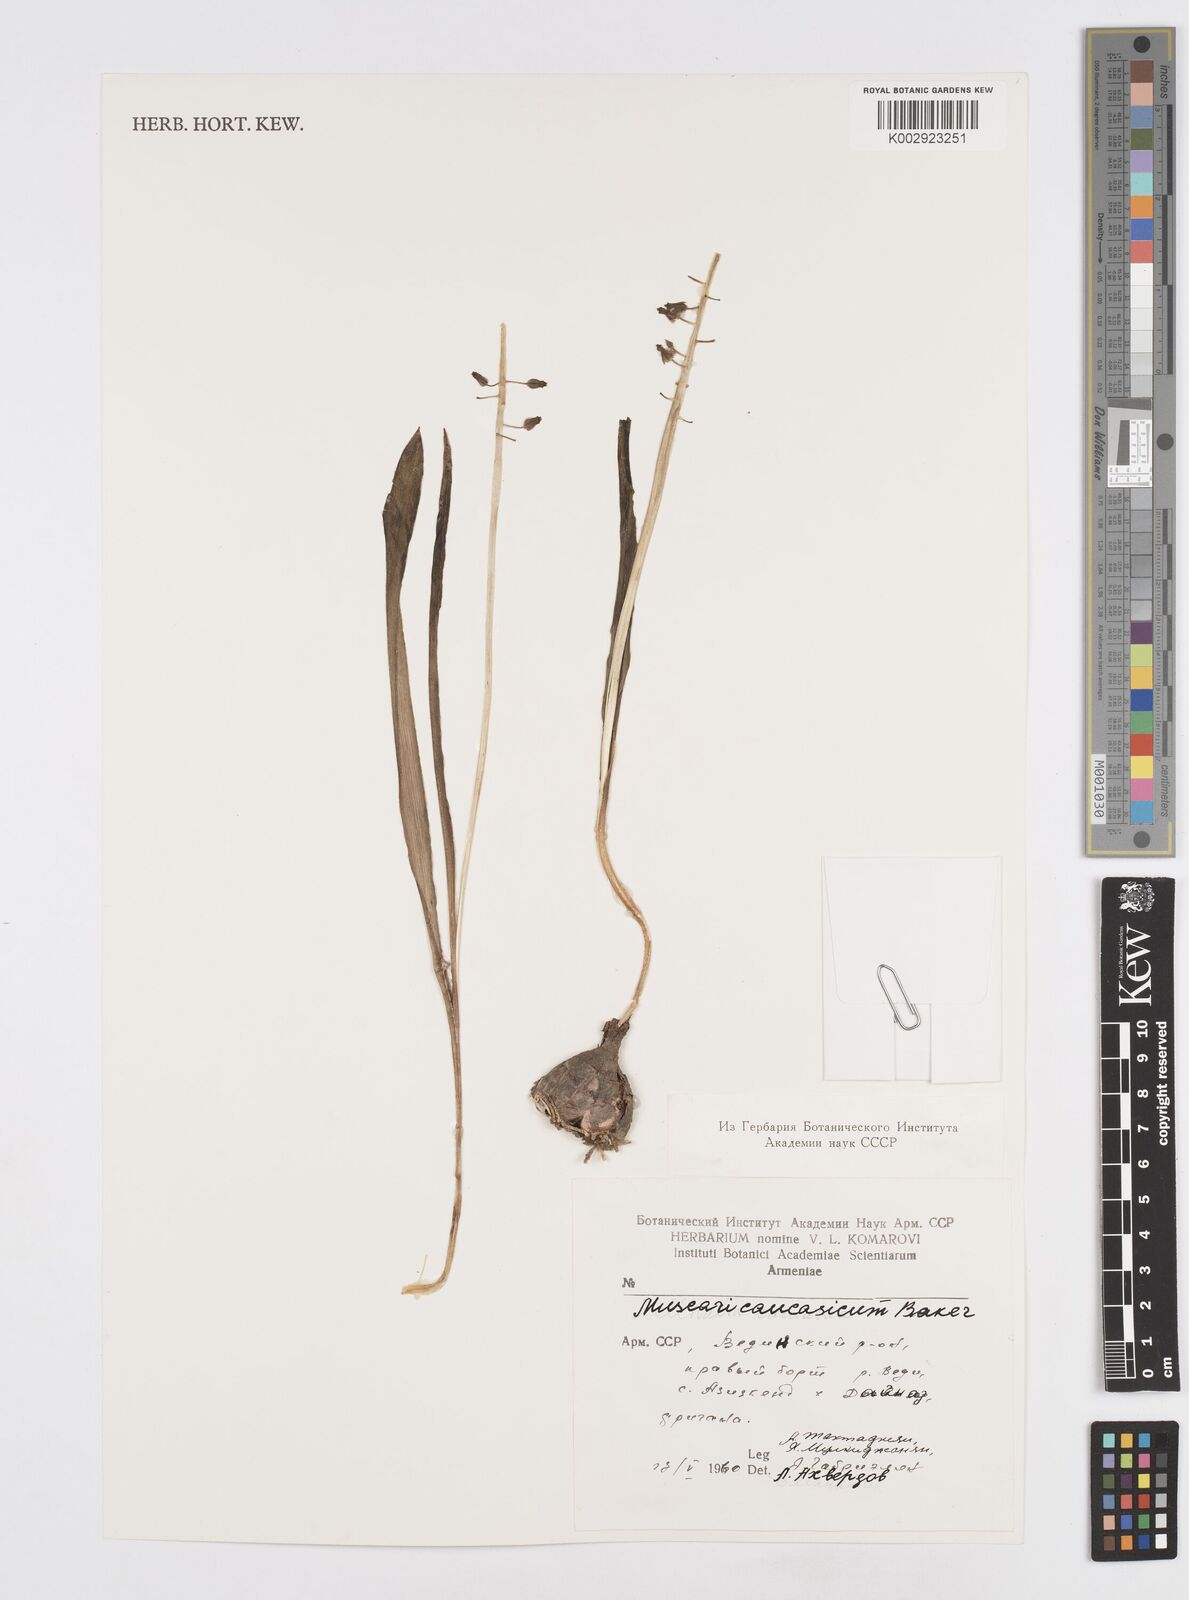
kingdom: Plantae
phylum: Tracheophyta
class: Liliopsida
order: Asparagales
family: Asparagaceae
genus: Muscari
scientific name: Muscari caucasicum
